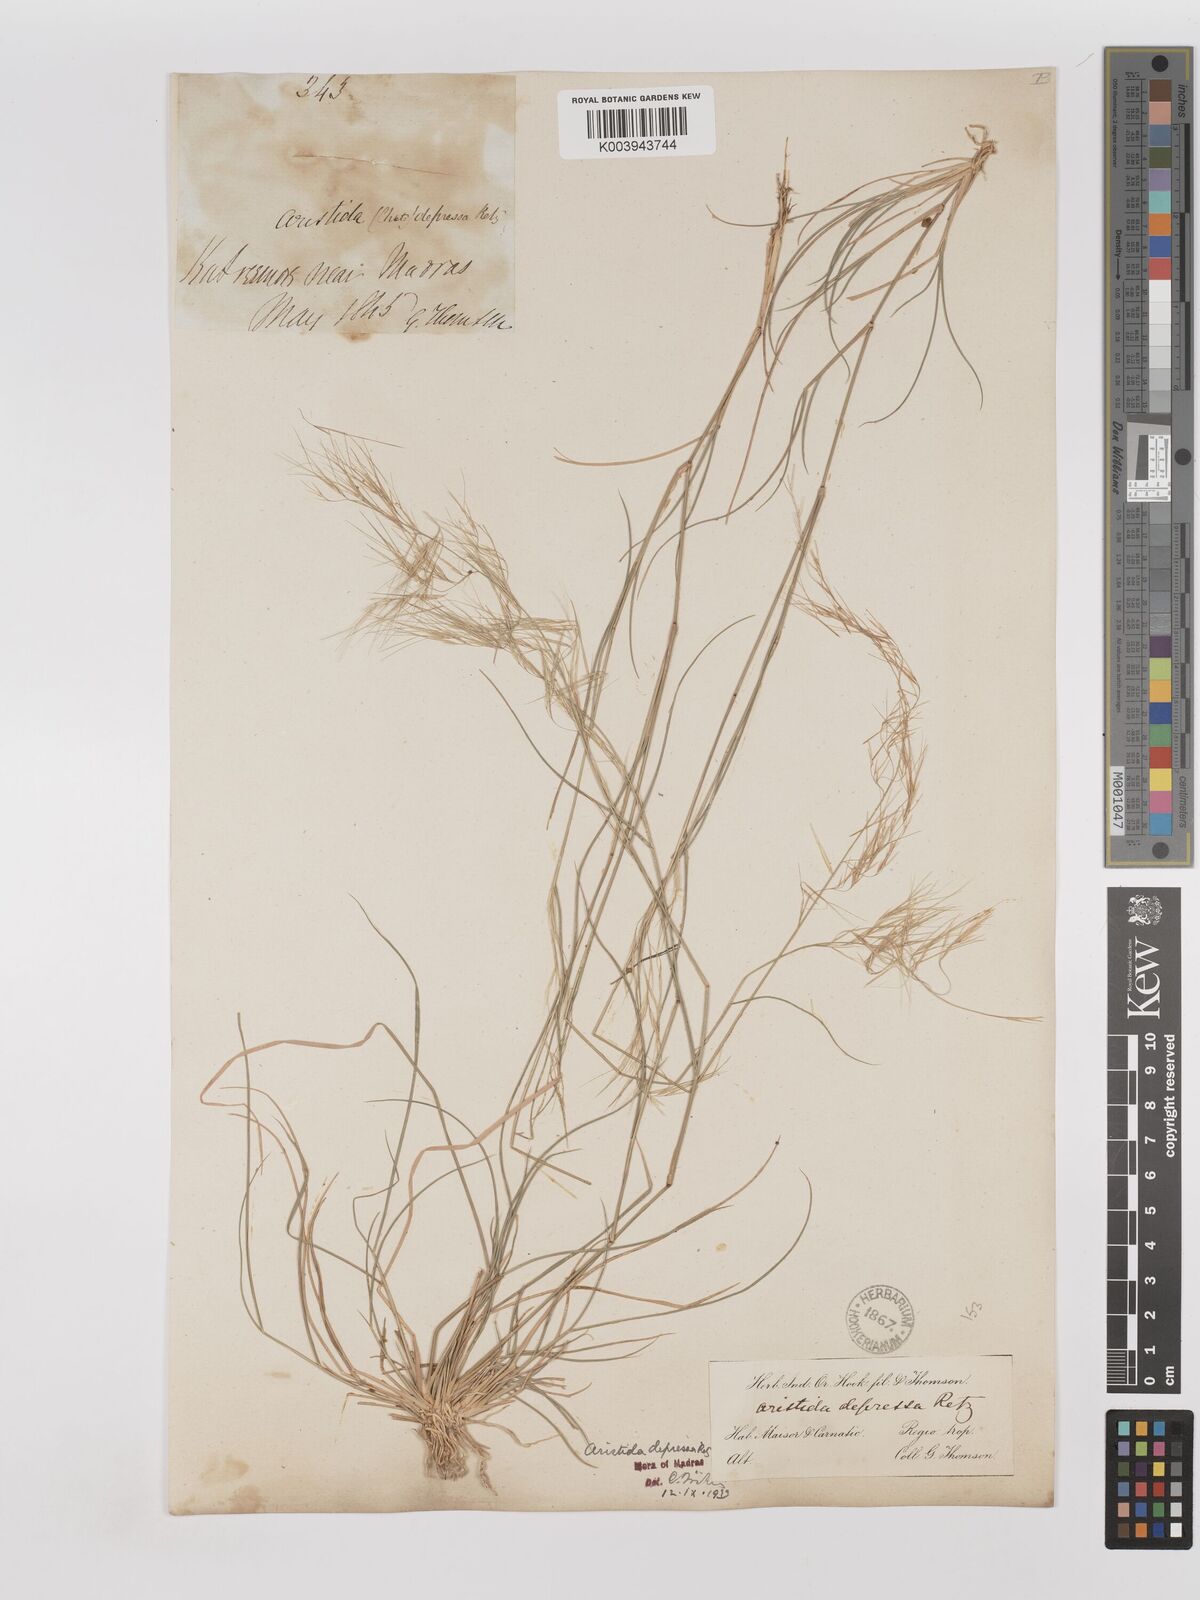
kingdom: Plantae
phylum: Tracheophyta
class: Liliopsida
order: Poales
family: Poaceae
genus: Aristida
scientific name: Aristida adscensionis
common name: Sixweeks threeawn
